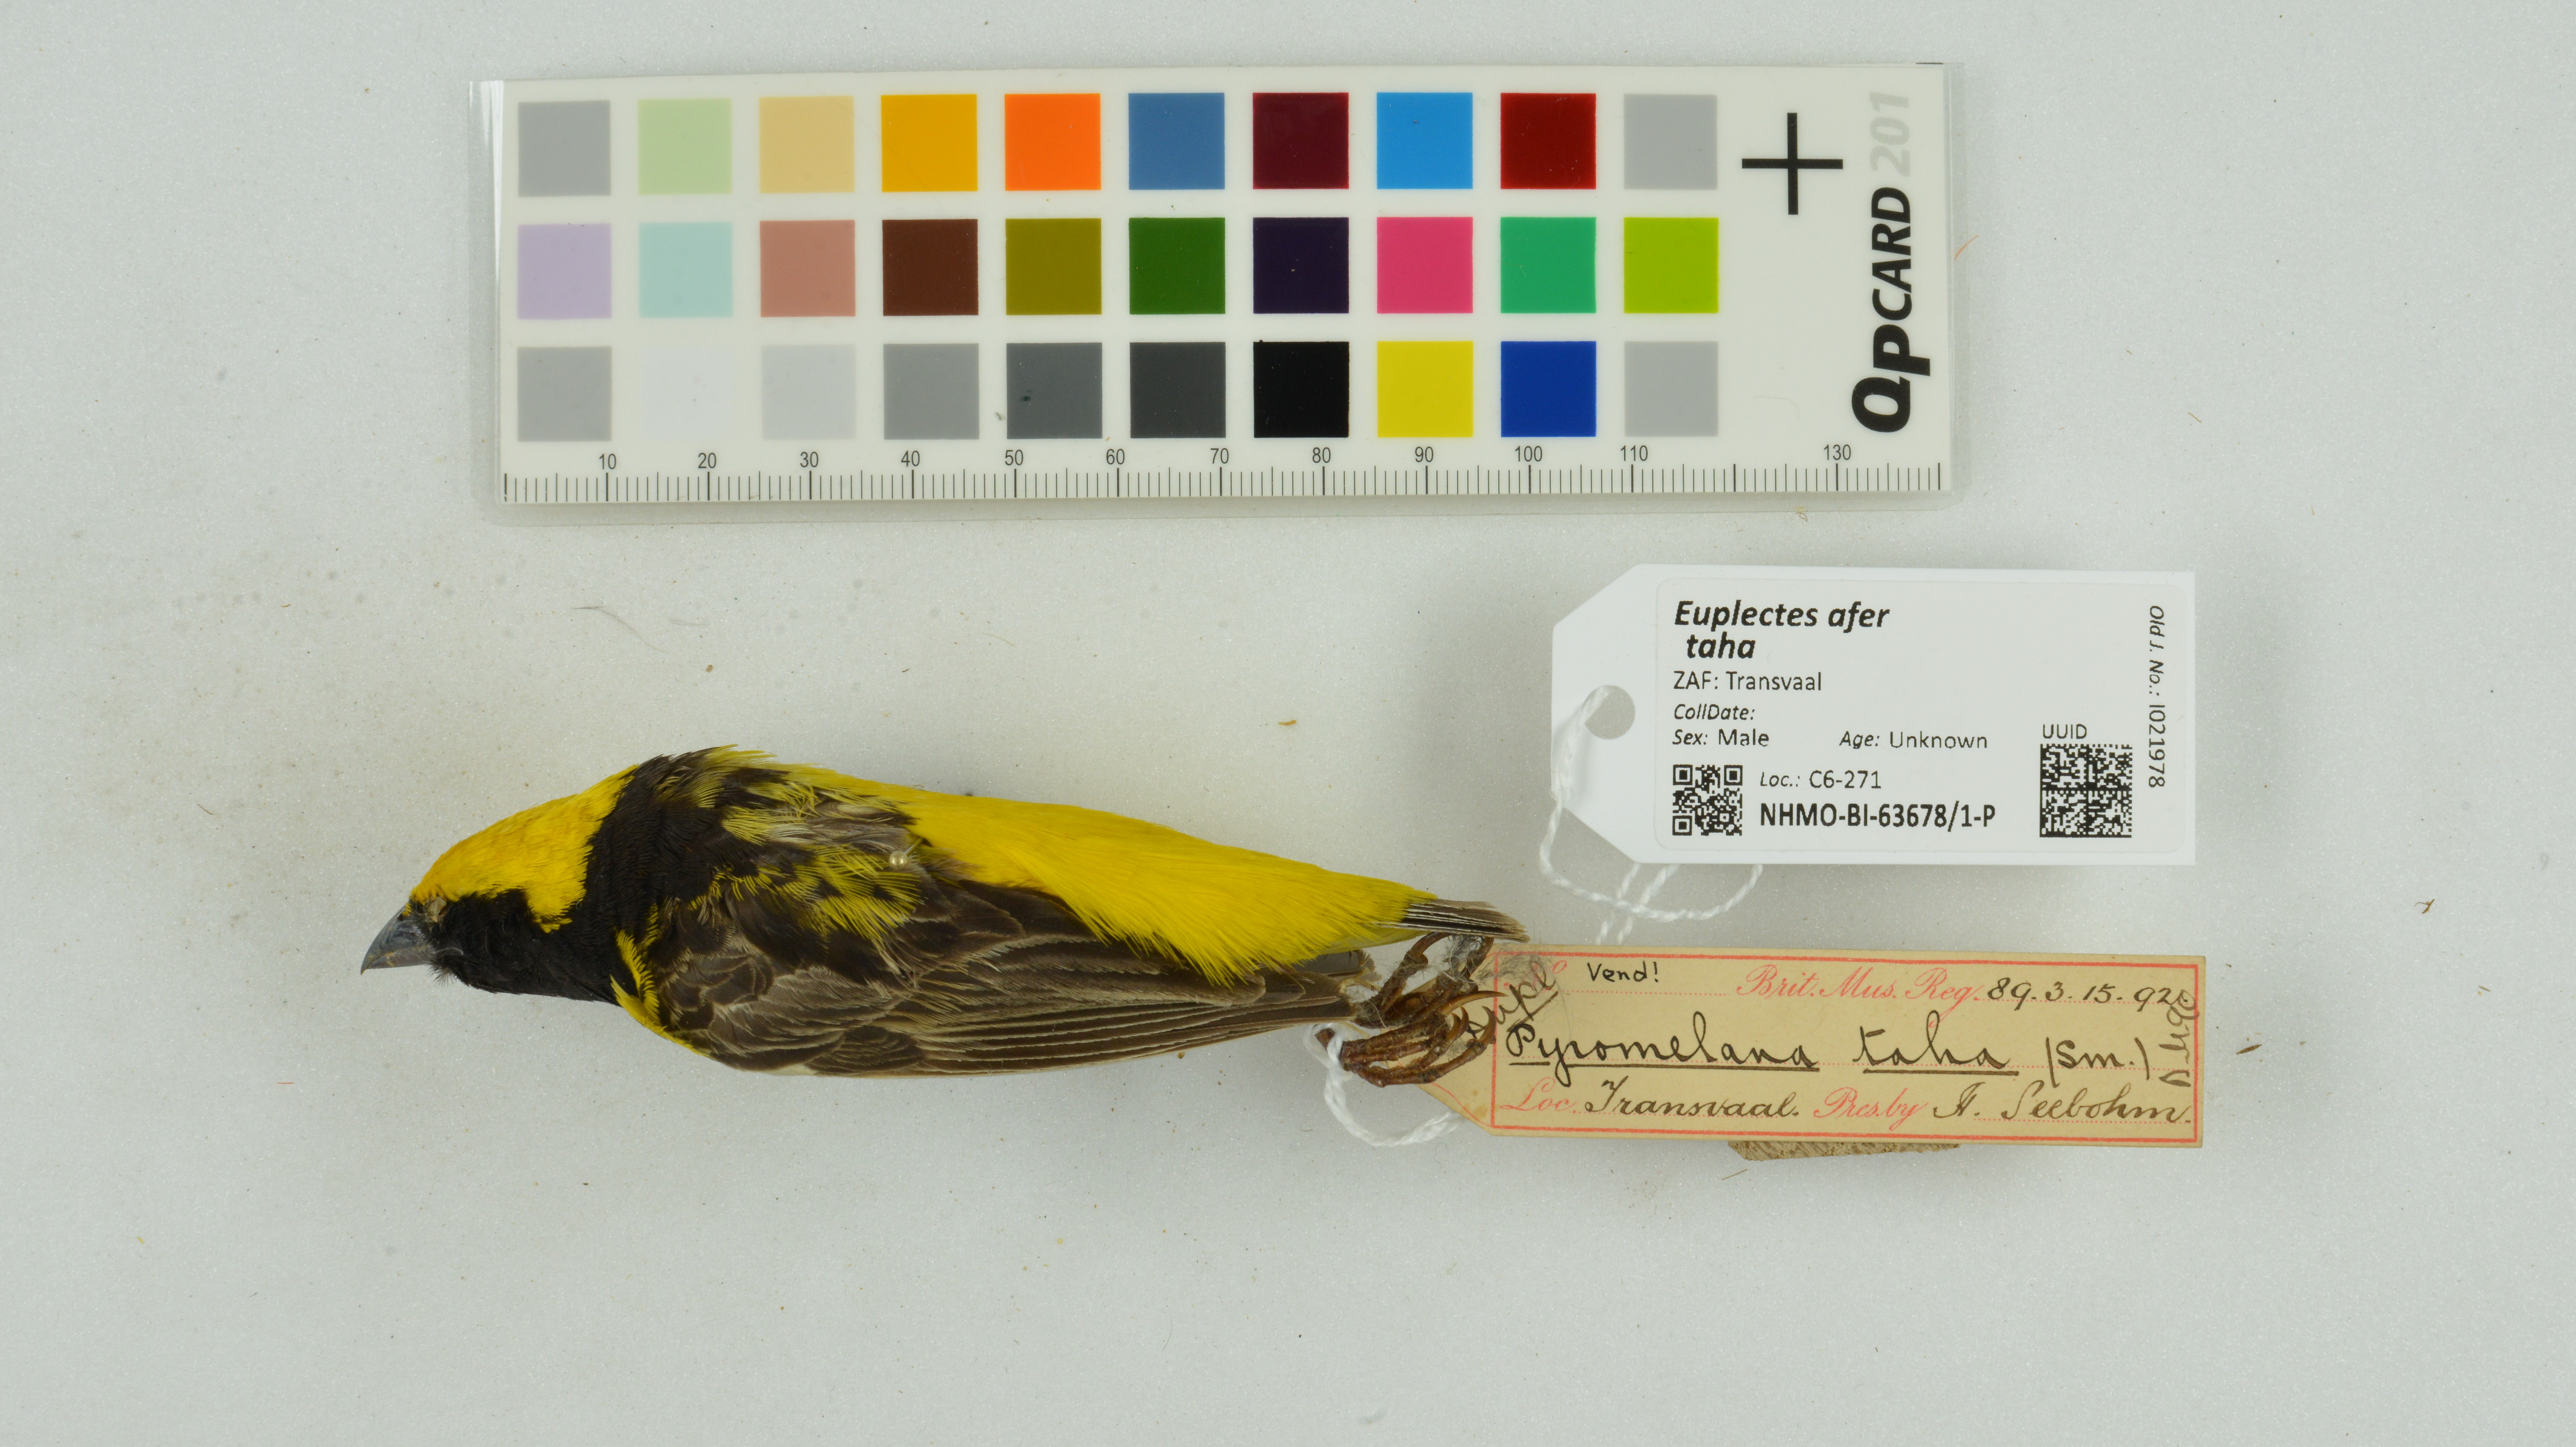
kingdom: Animalia
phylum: Chordata
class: Aves
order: Passeriformes
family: Ploceidae
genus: Euplectes
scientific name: Euplectes afer
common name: Yellow-crowned bishop
